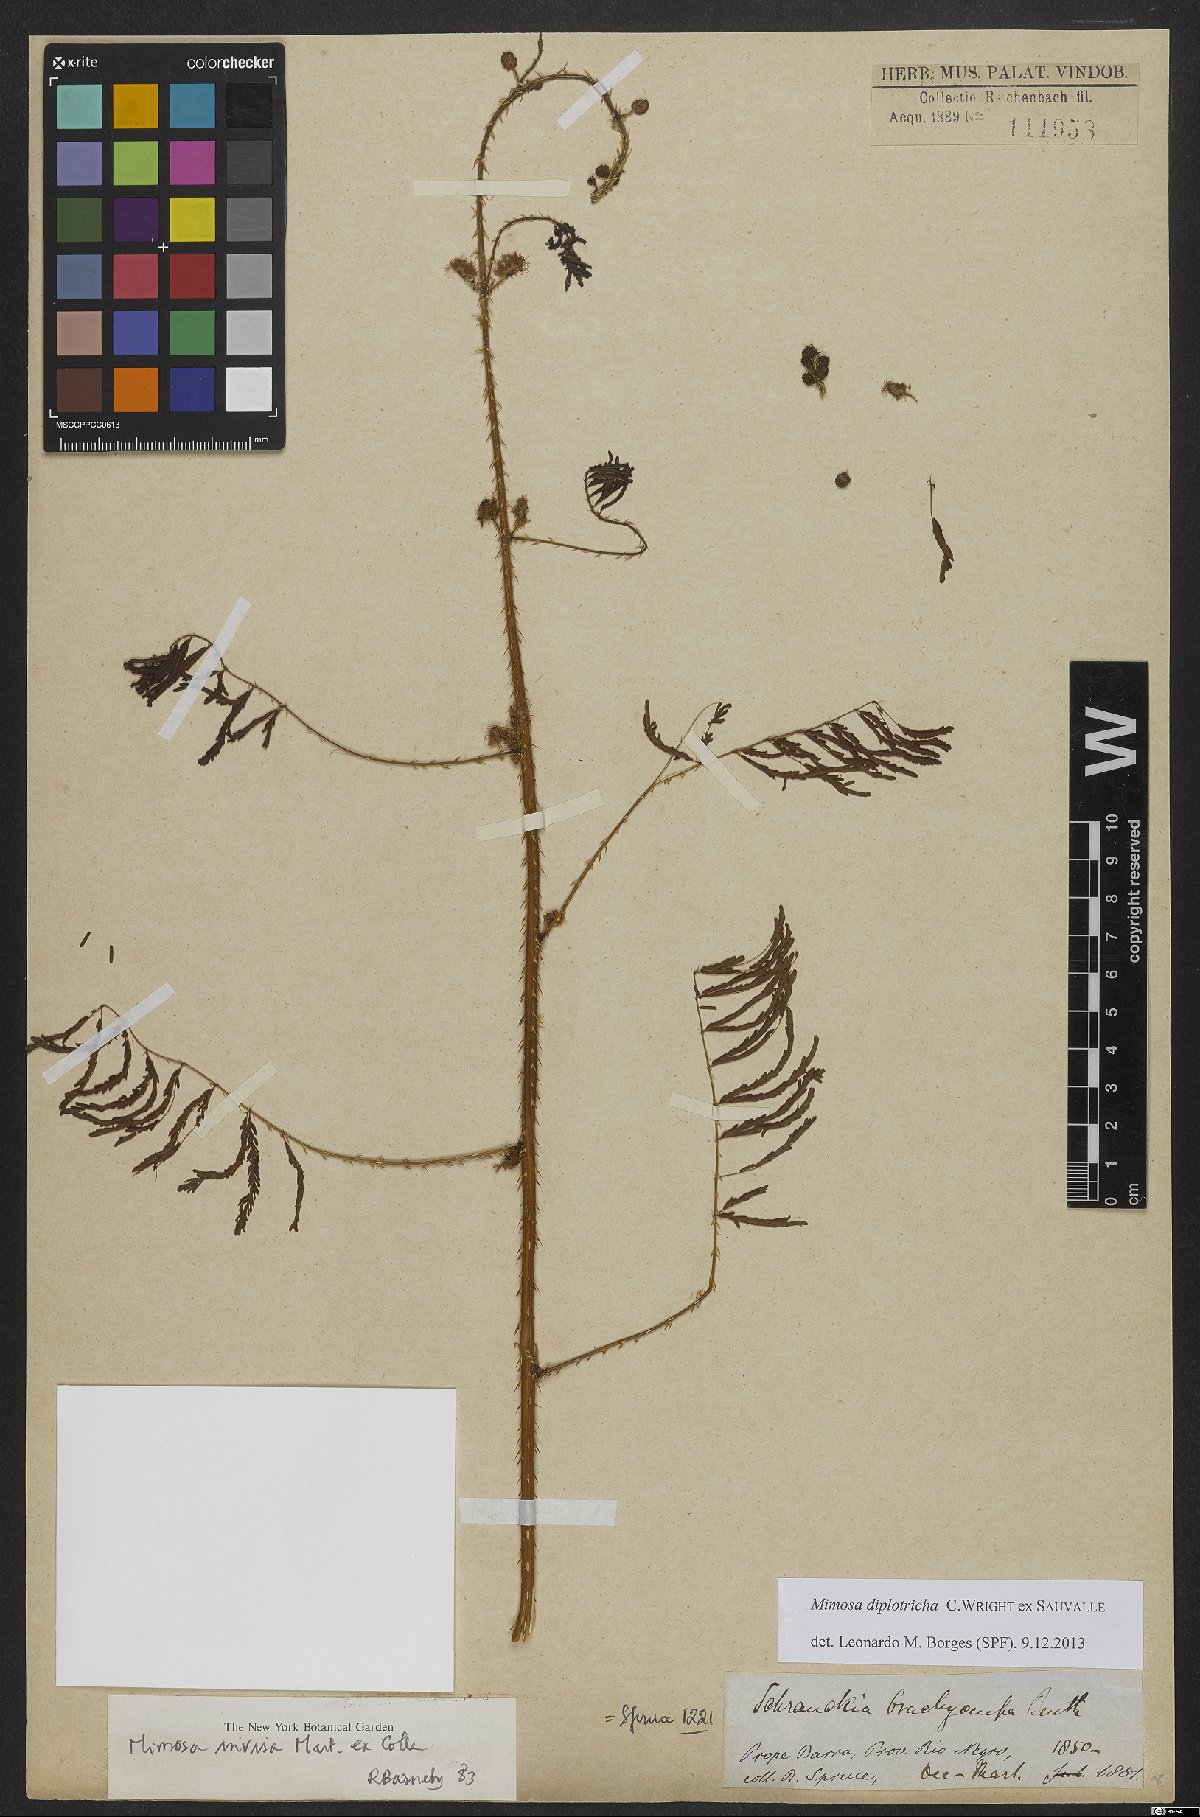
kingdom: Plantae
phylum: Tracheophyta
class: Magnoliopsida
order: Fabales
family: Fabaceae
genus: Mimosa
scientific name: Mimosa diplotricha
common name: Giant sensitive-plant
